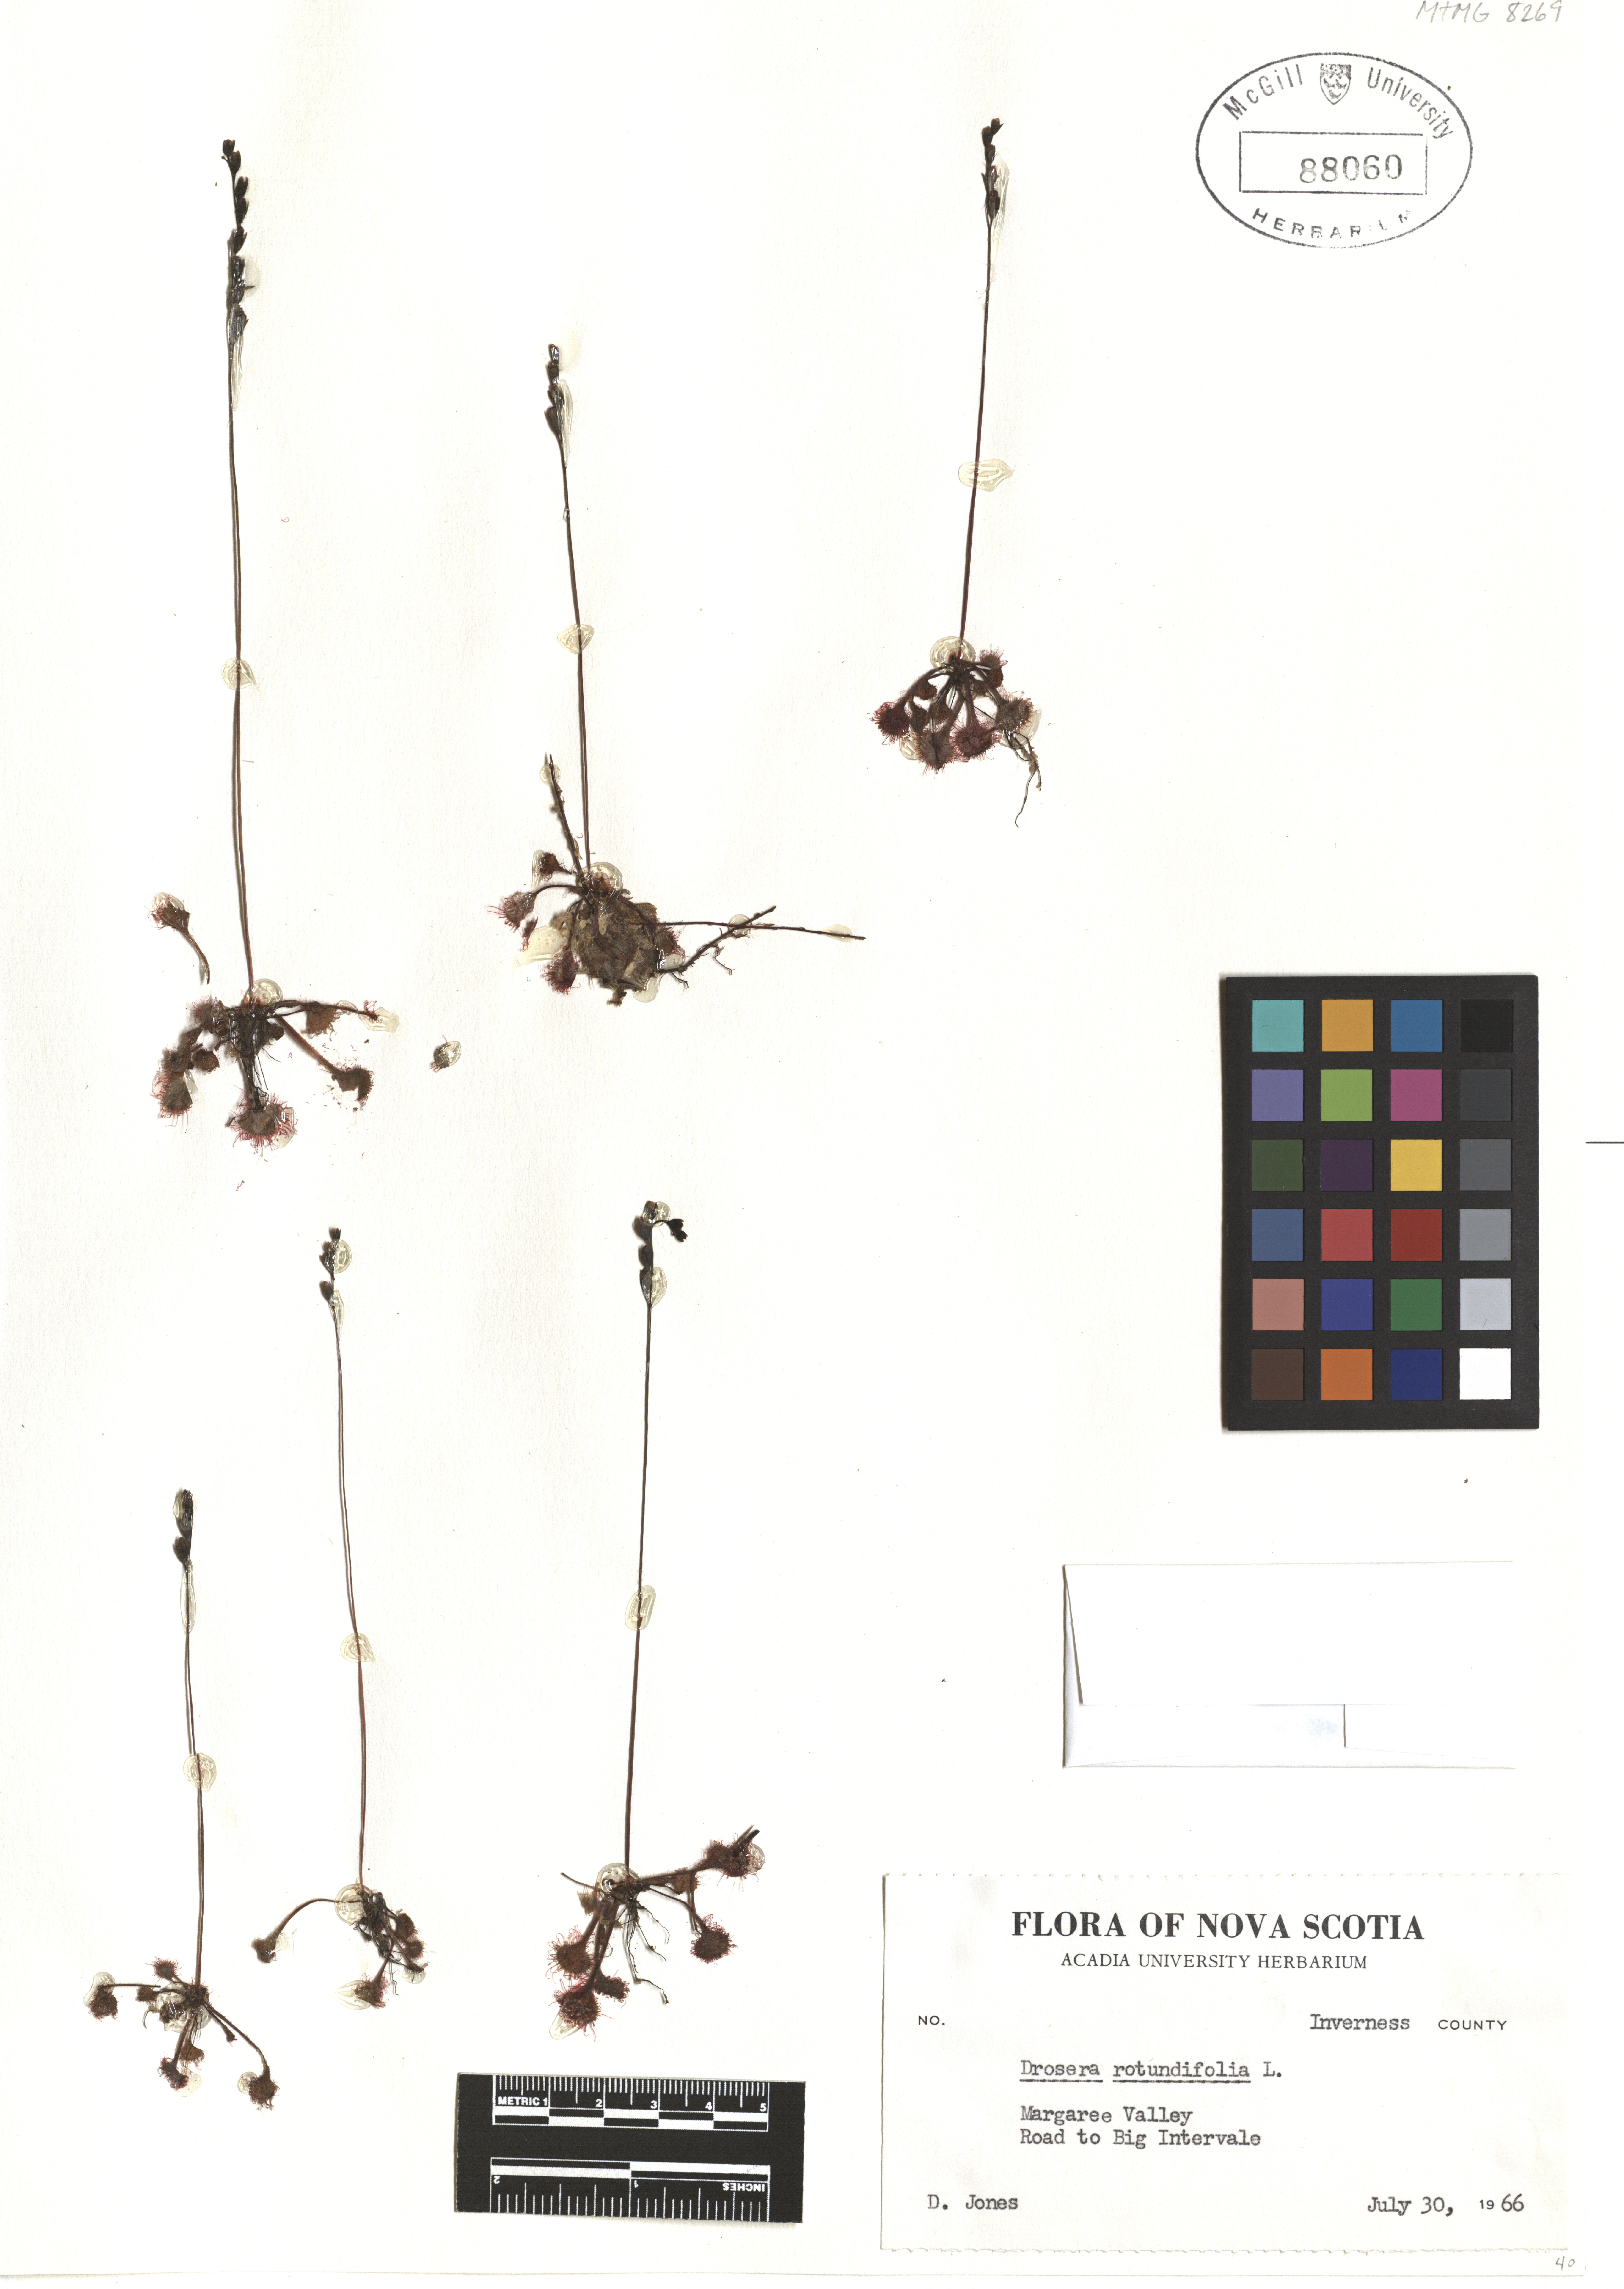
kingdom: Plantae
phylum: Tracheophyta
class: Magnoliopsida
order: Caryophyllales
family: Droseraceae
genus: Drosera
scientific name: Drosera rotundifolia
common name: Round-leaved sundew
